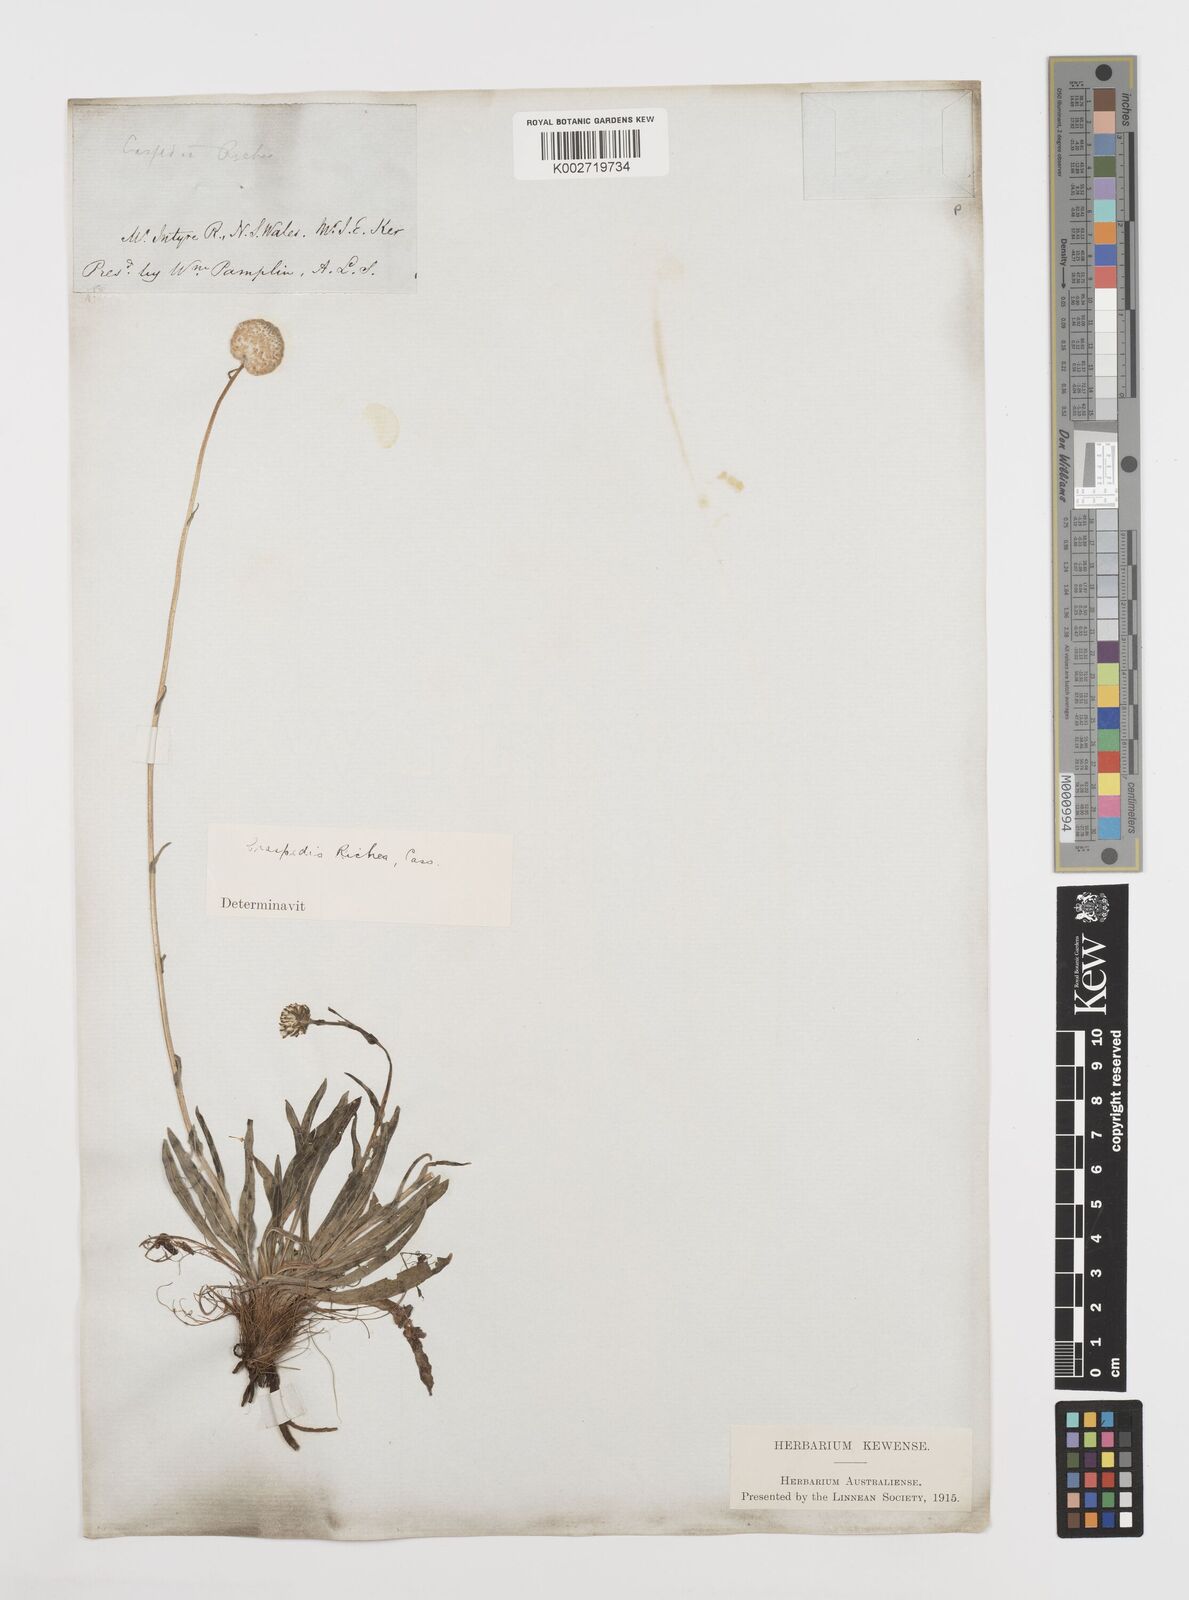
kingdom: Plantae
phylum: Tracheophyta
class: Magnoliopsida
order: Asterales
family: Asteraceae
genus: Craspedia
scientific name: Craspedia glauca
